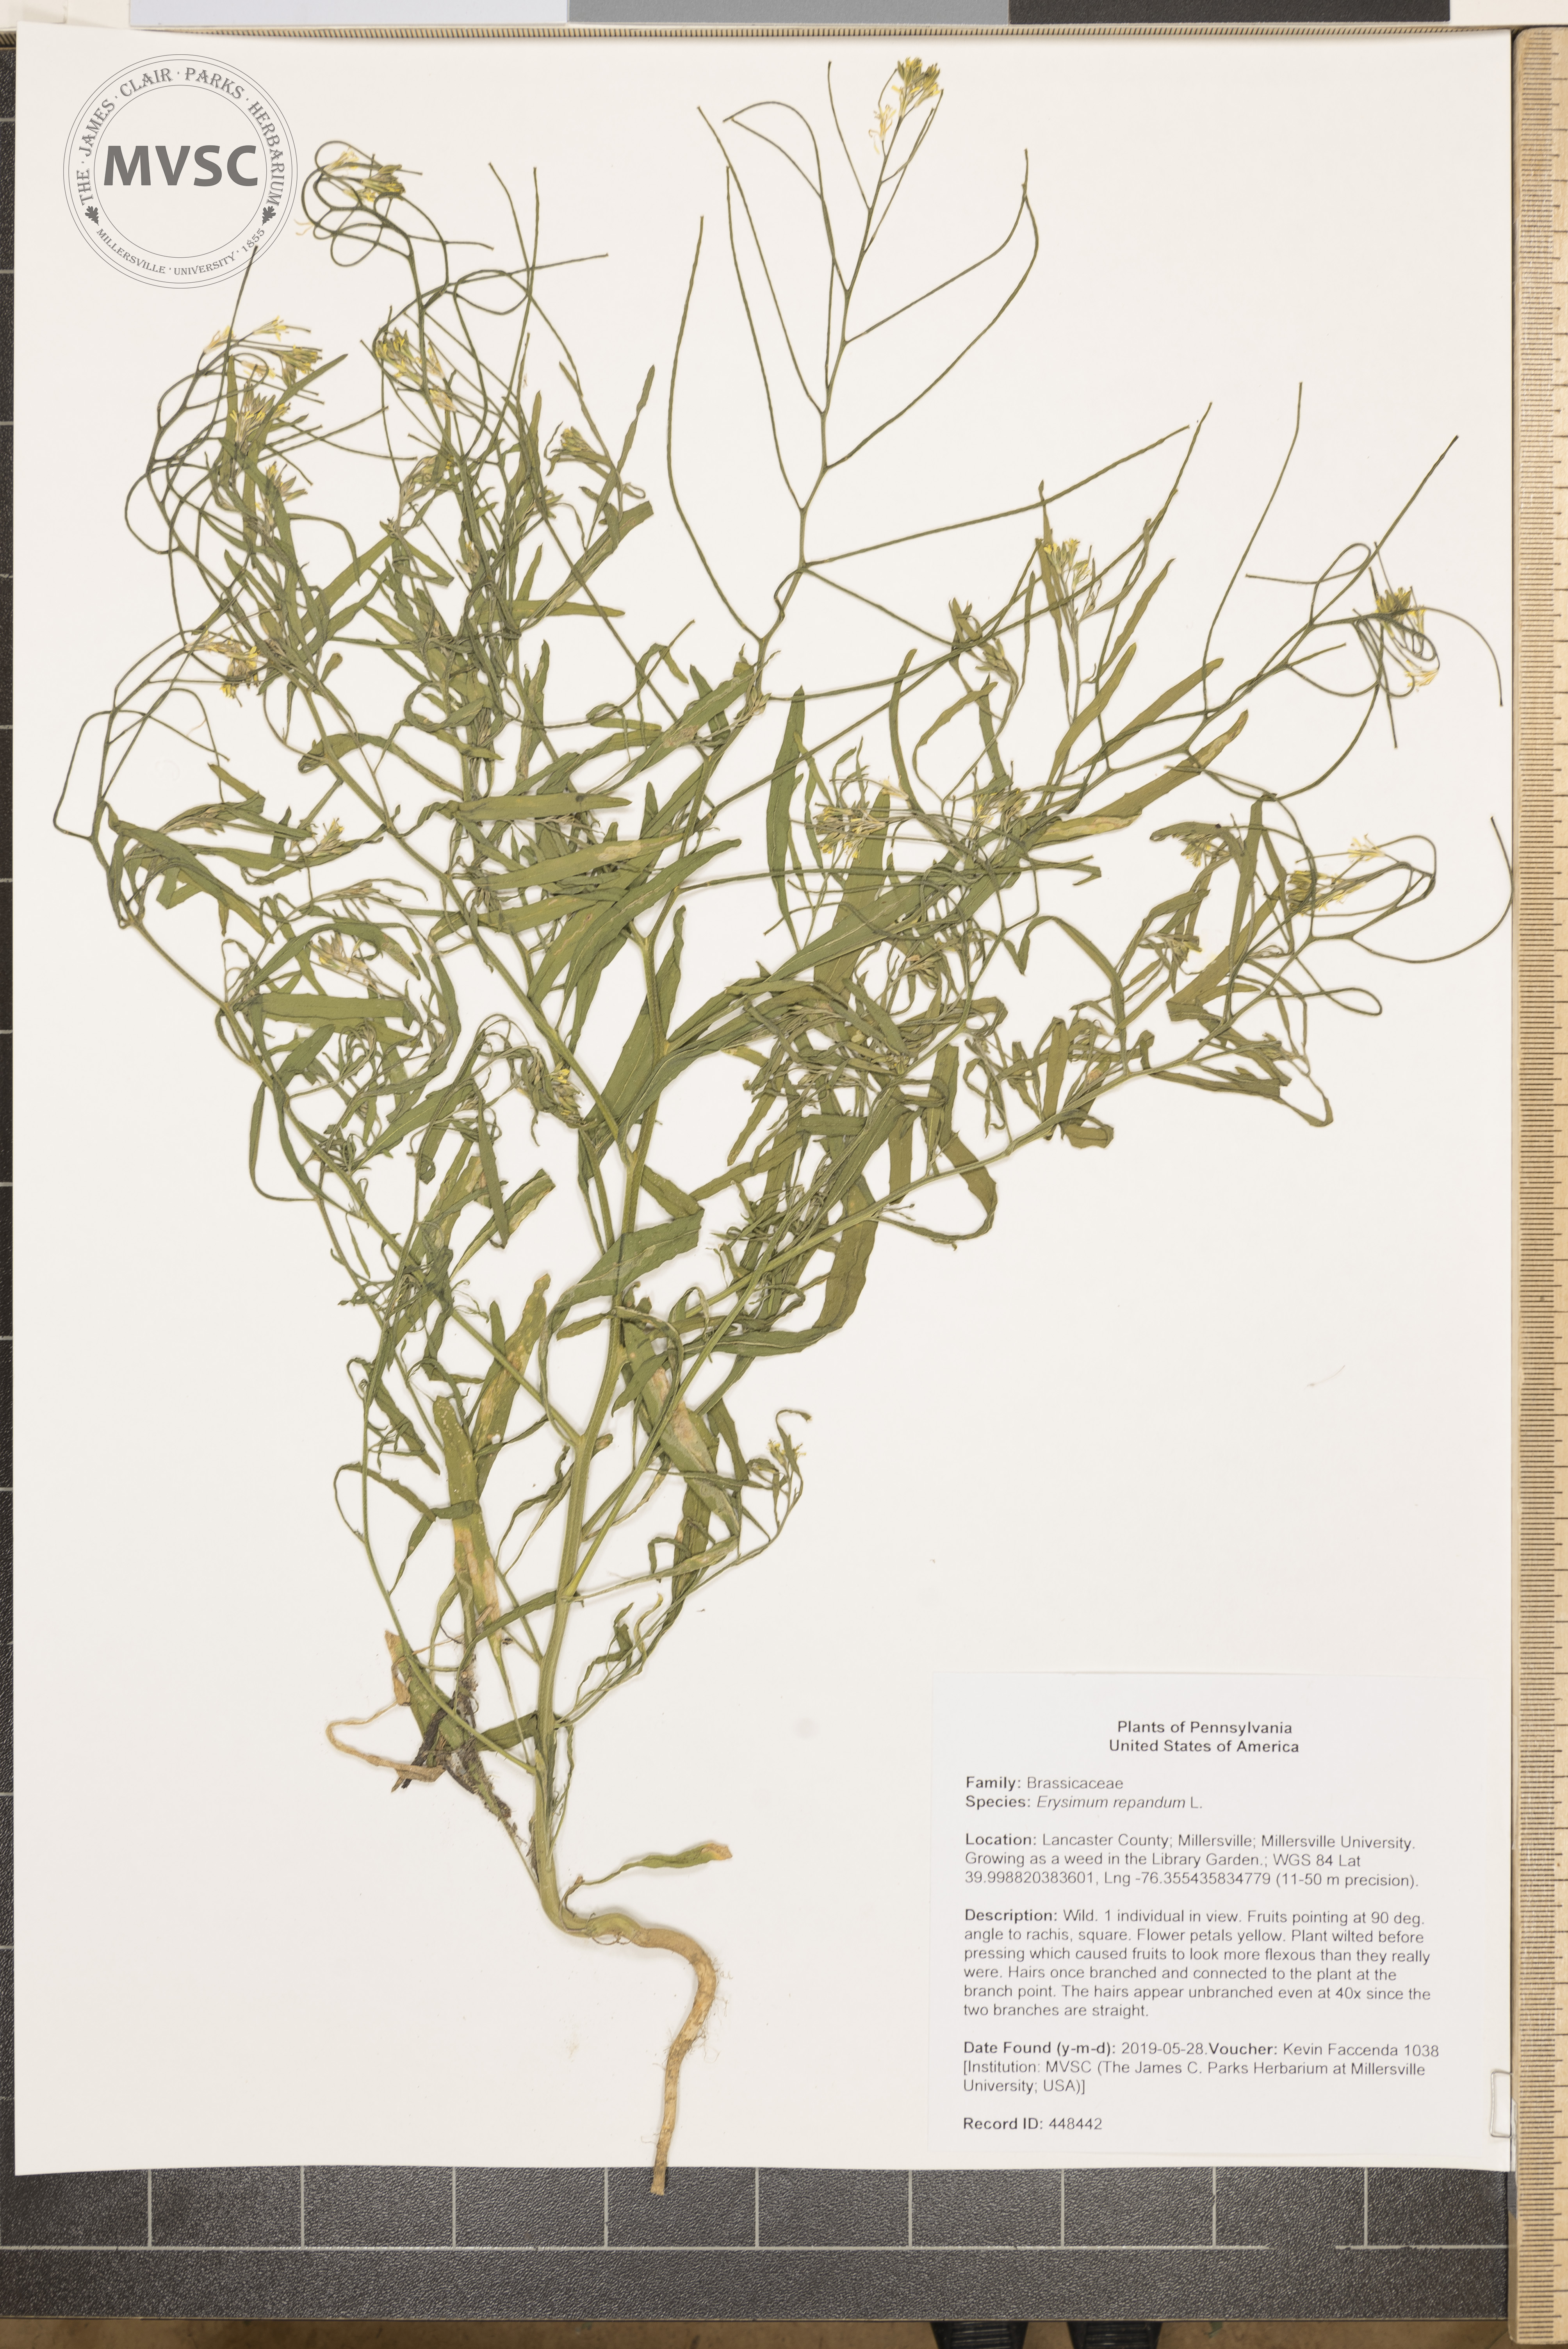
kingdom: Plantae
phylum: Tracheophyta
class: Magnoliopsida
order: Brassicales
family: Brassicaceae
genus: Erysimum
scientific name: Erysimum repandum
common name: Spreading wallflower
